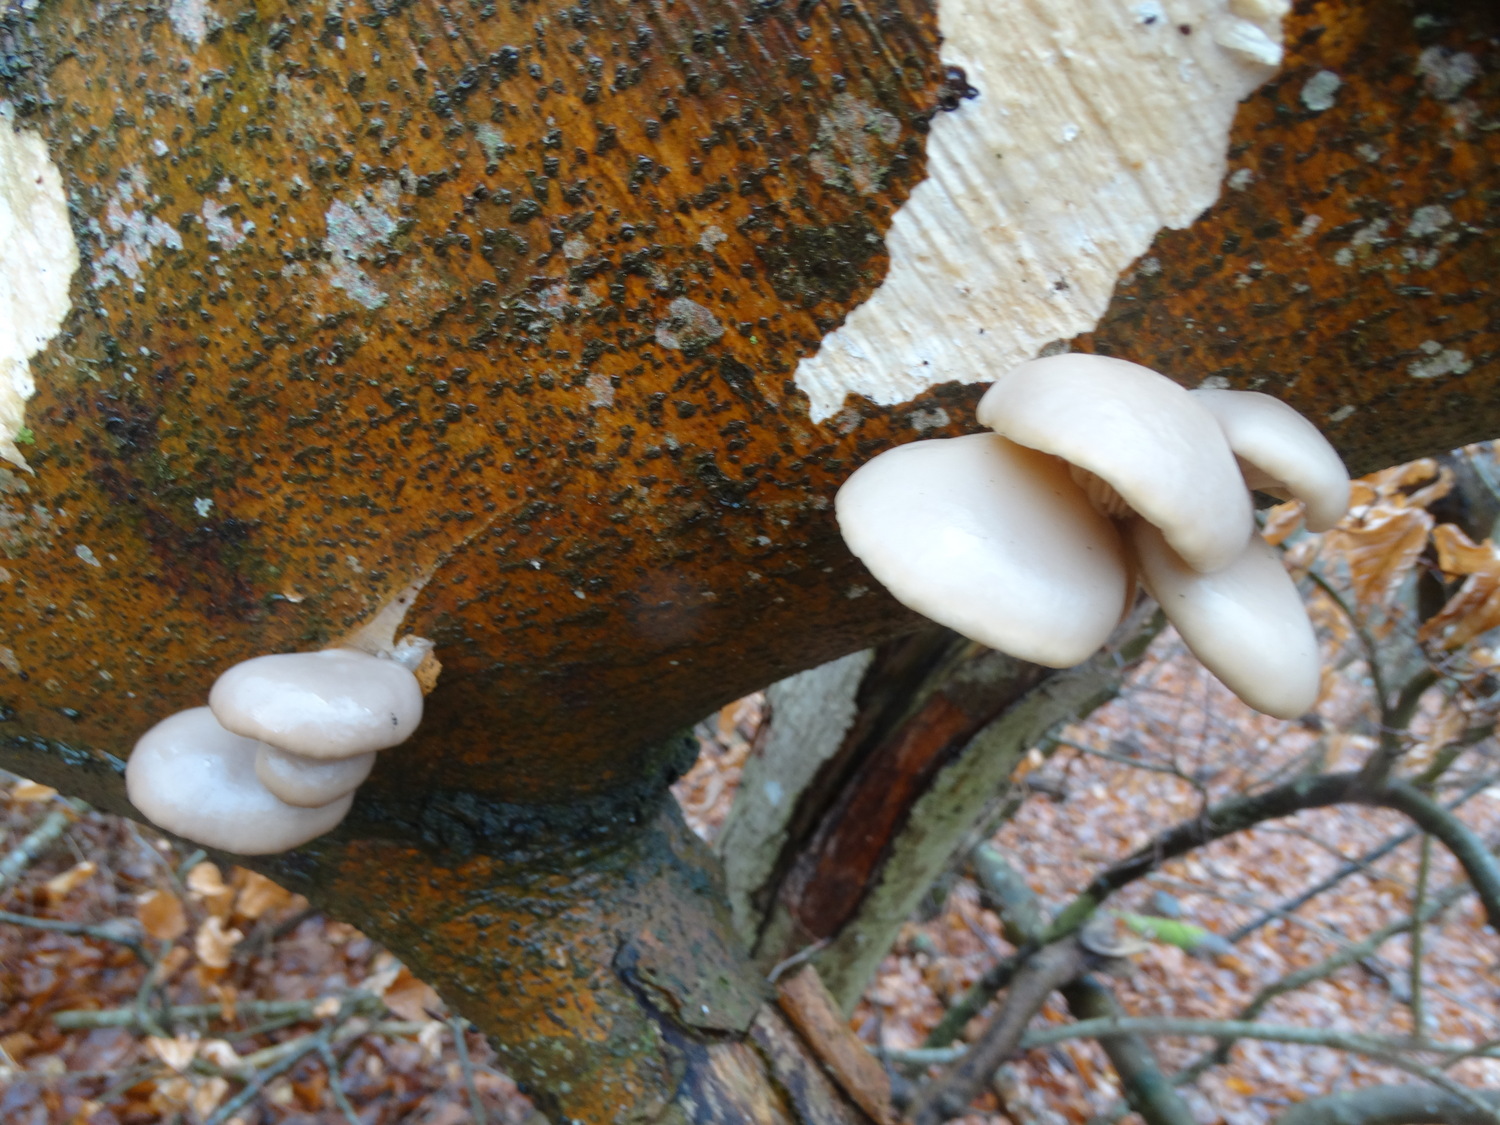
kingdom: Fungi
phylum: Basidiomycota
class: Agaricomycetes
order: Agaricales
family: Pleurotaceae
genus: Pleurotus
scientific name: Pleurotus ostreatus
